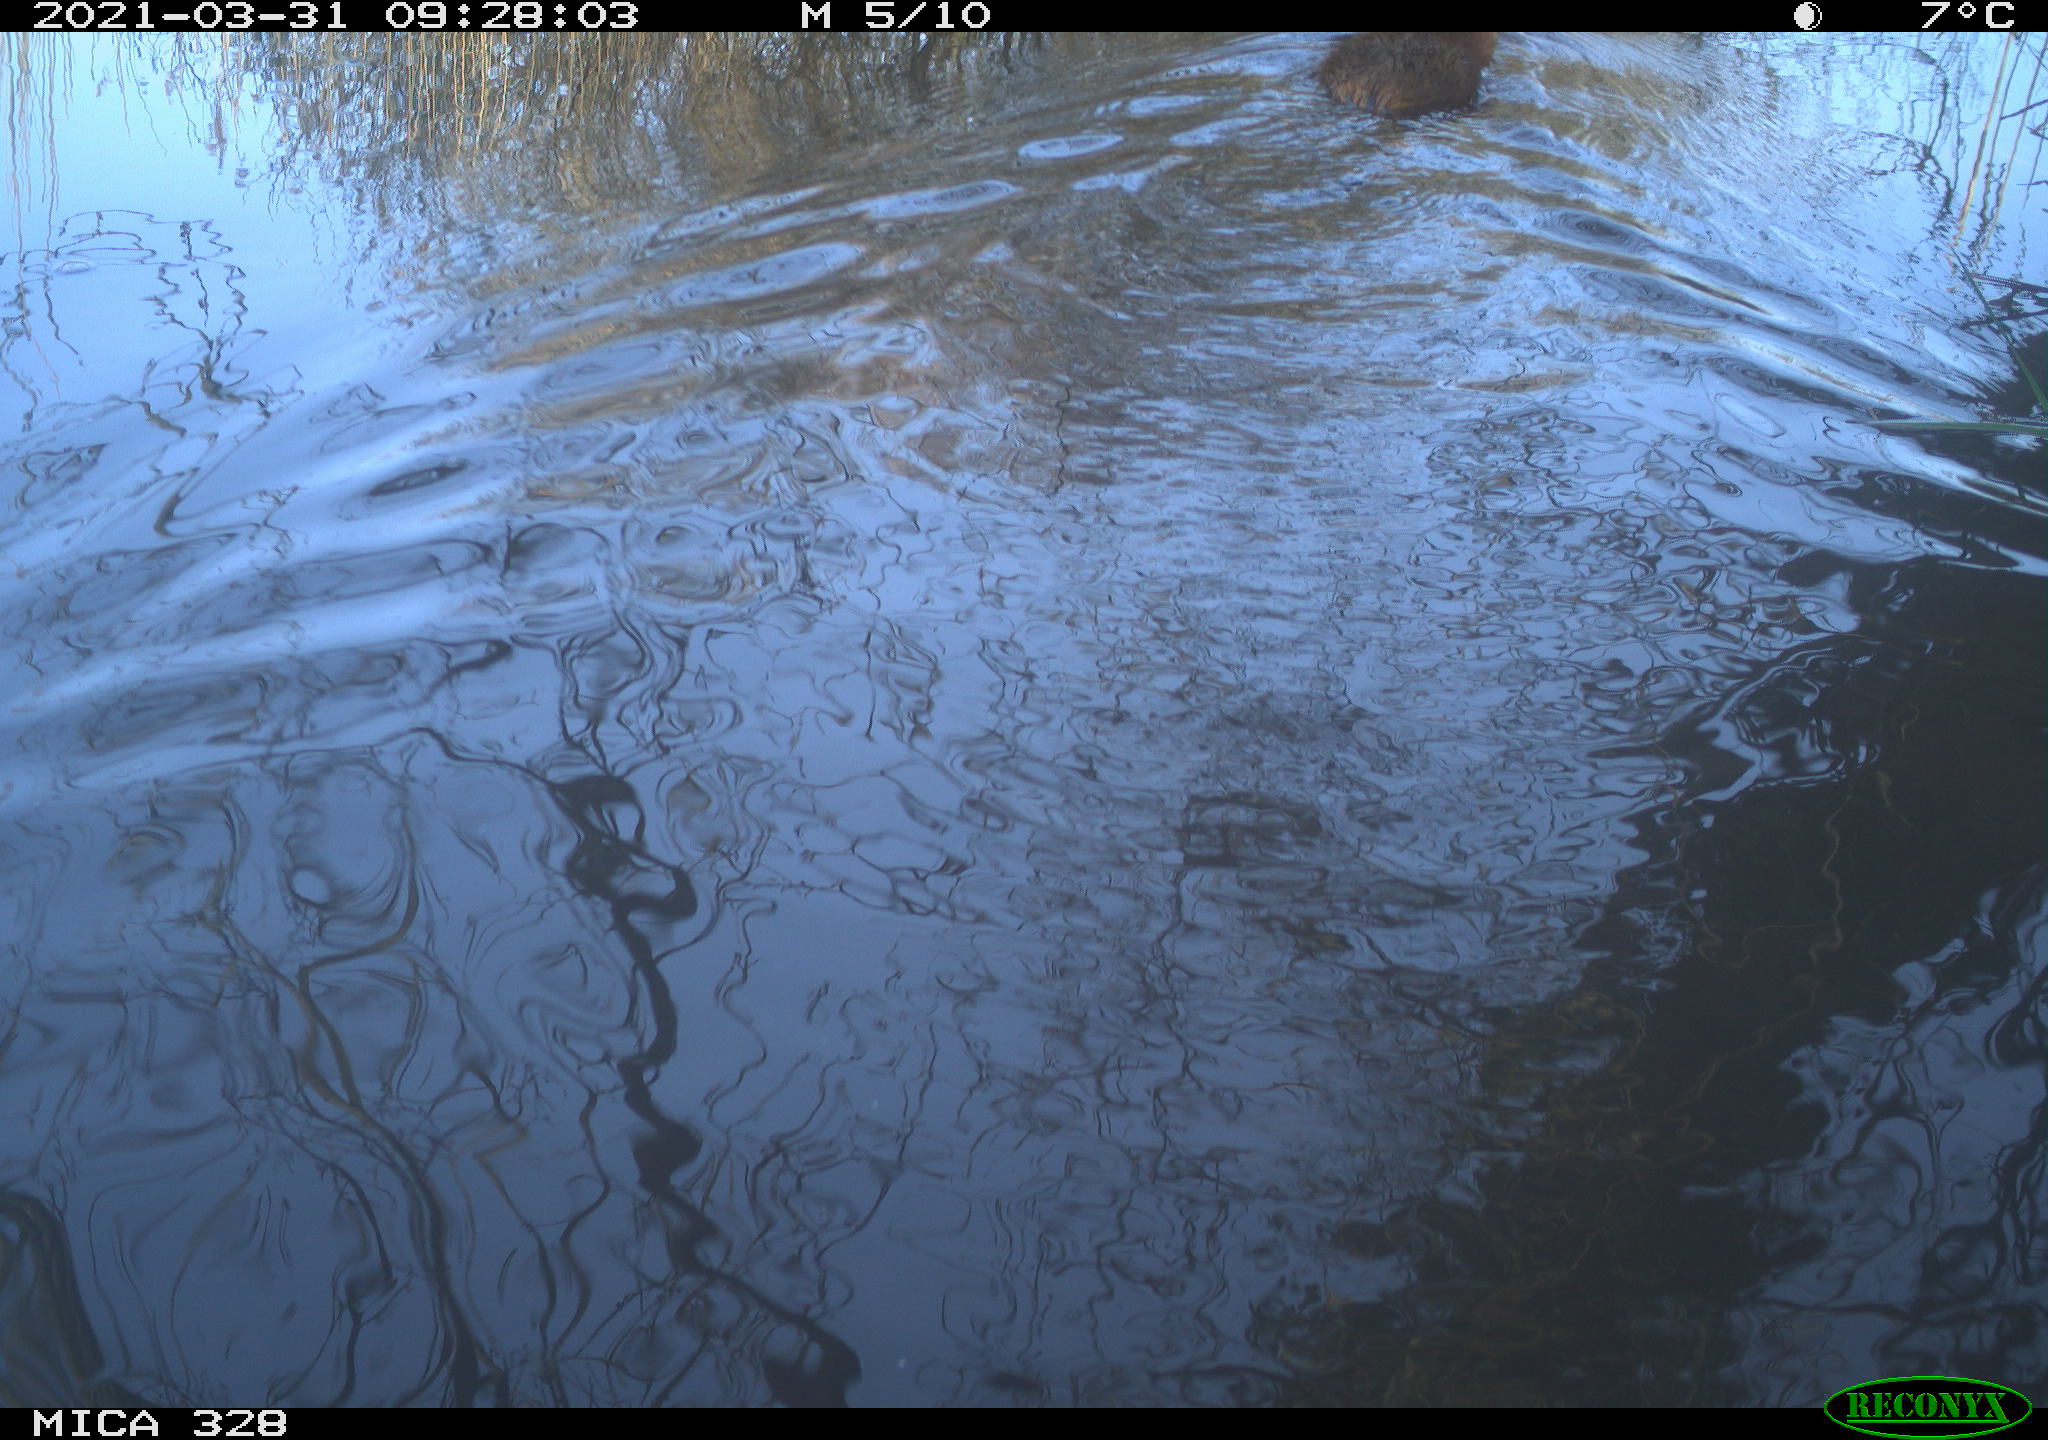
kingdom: Animalia
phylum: Chordata
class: Mammalia
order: Rodentia
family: Cricetidae
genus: Ondatra
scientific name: Ondatra zibethicus
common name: Muskrat
